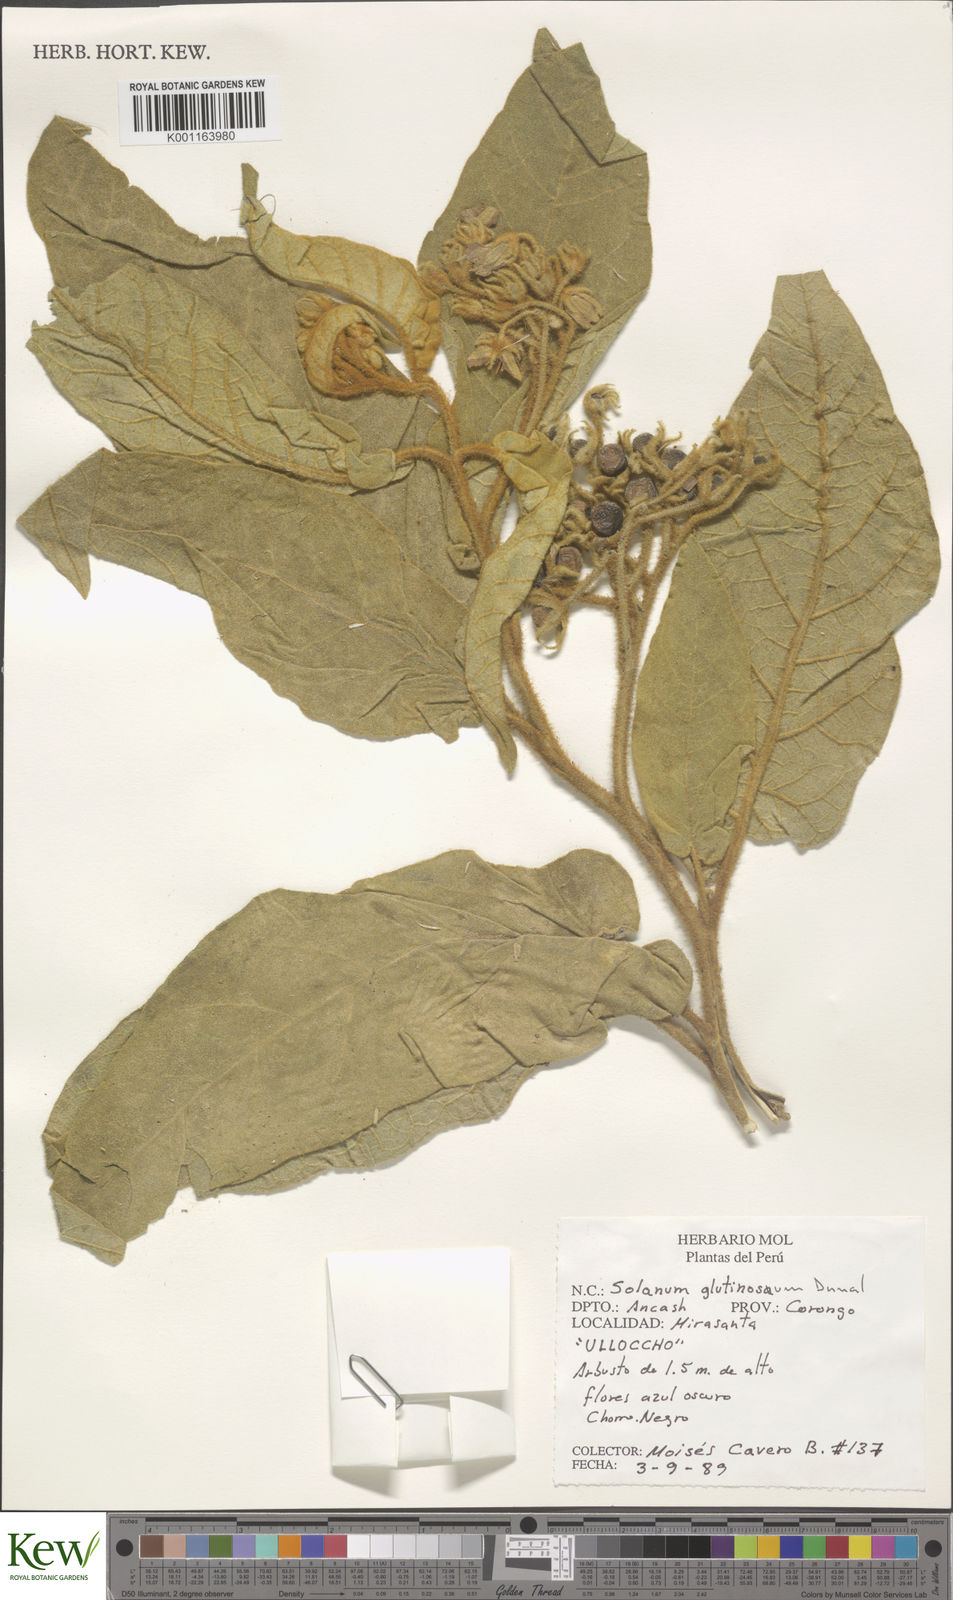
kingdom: Plantae
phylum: Tracheophyta
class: Magnoliopsida
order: Solanales
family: Solanaceae
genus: Solanum
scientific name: Solanum glutinosum
